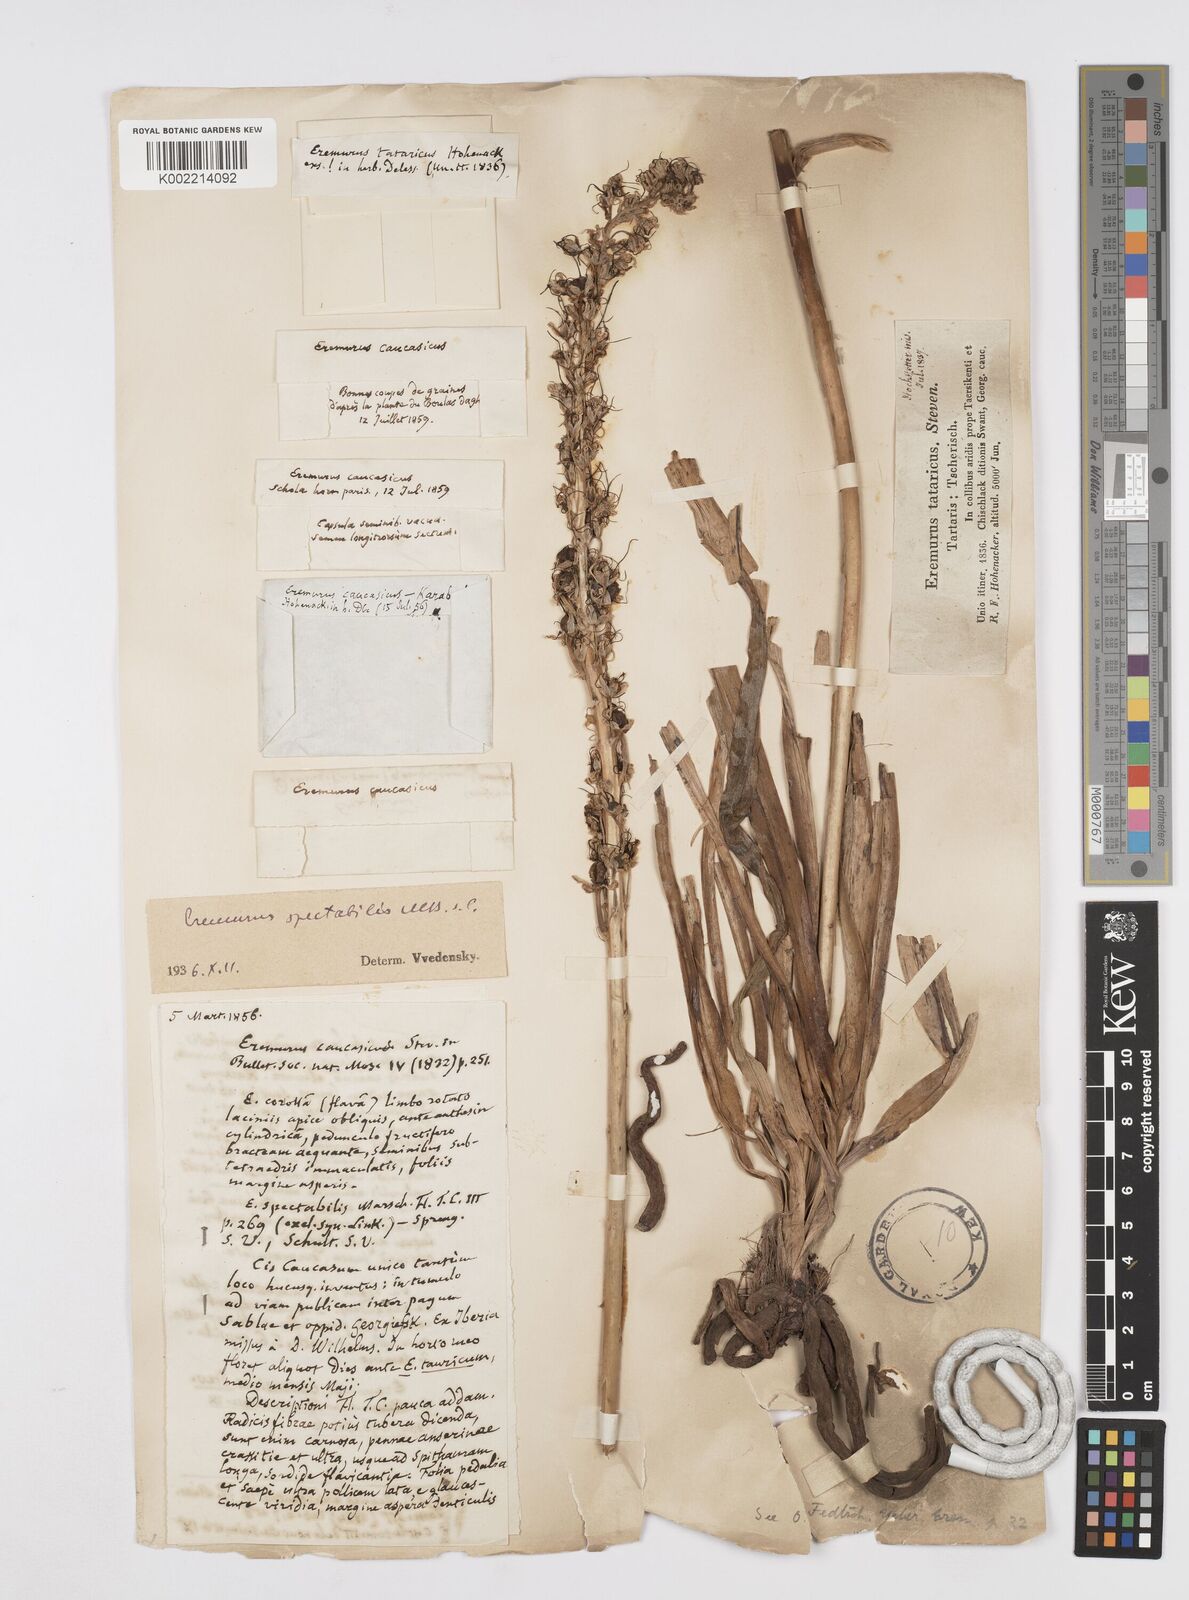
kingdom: Plantae
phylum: Tracheophyta
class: Liliopsida
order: Asparagales
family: Asphodelaceae
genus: Eremurus
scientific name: Eremurus spectabilis
